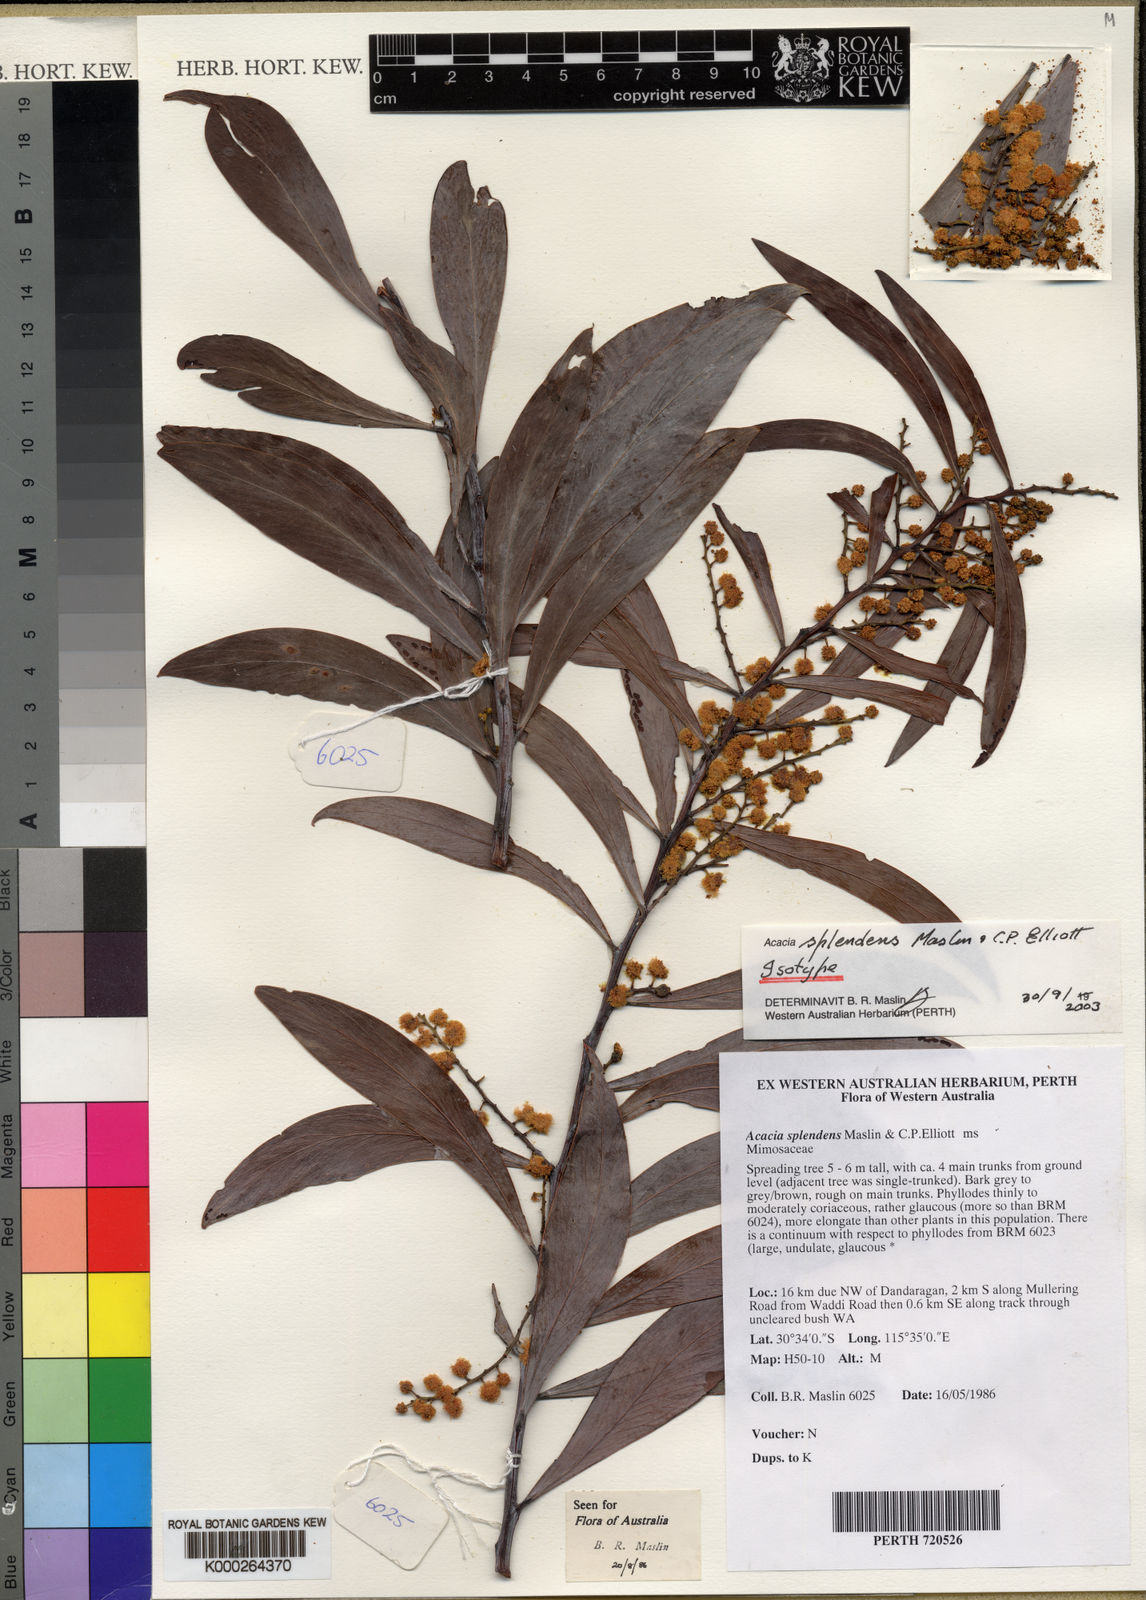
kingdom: Plantae
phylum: Tracheophyta
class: Magnoliopsida
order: Fabales
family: Fabaceae
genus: Acacia
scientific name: Acacia splendens
